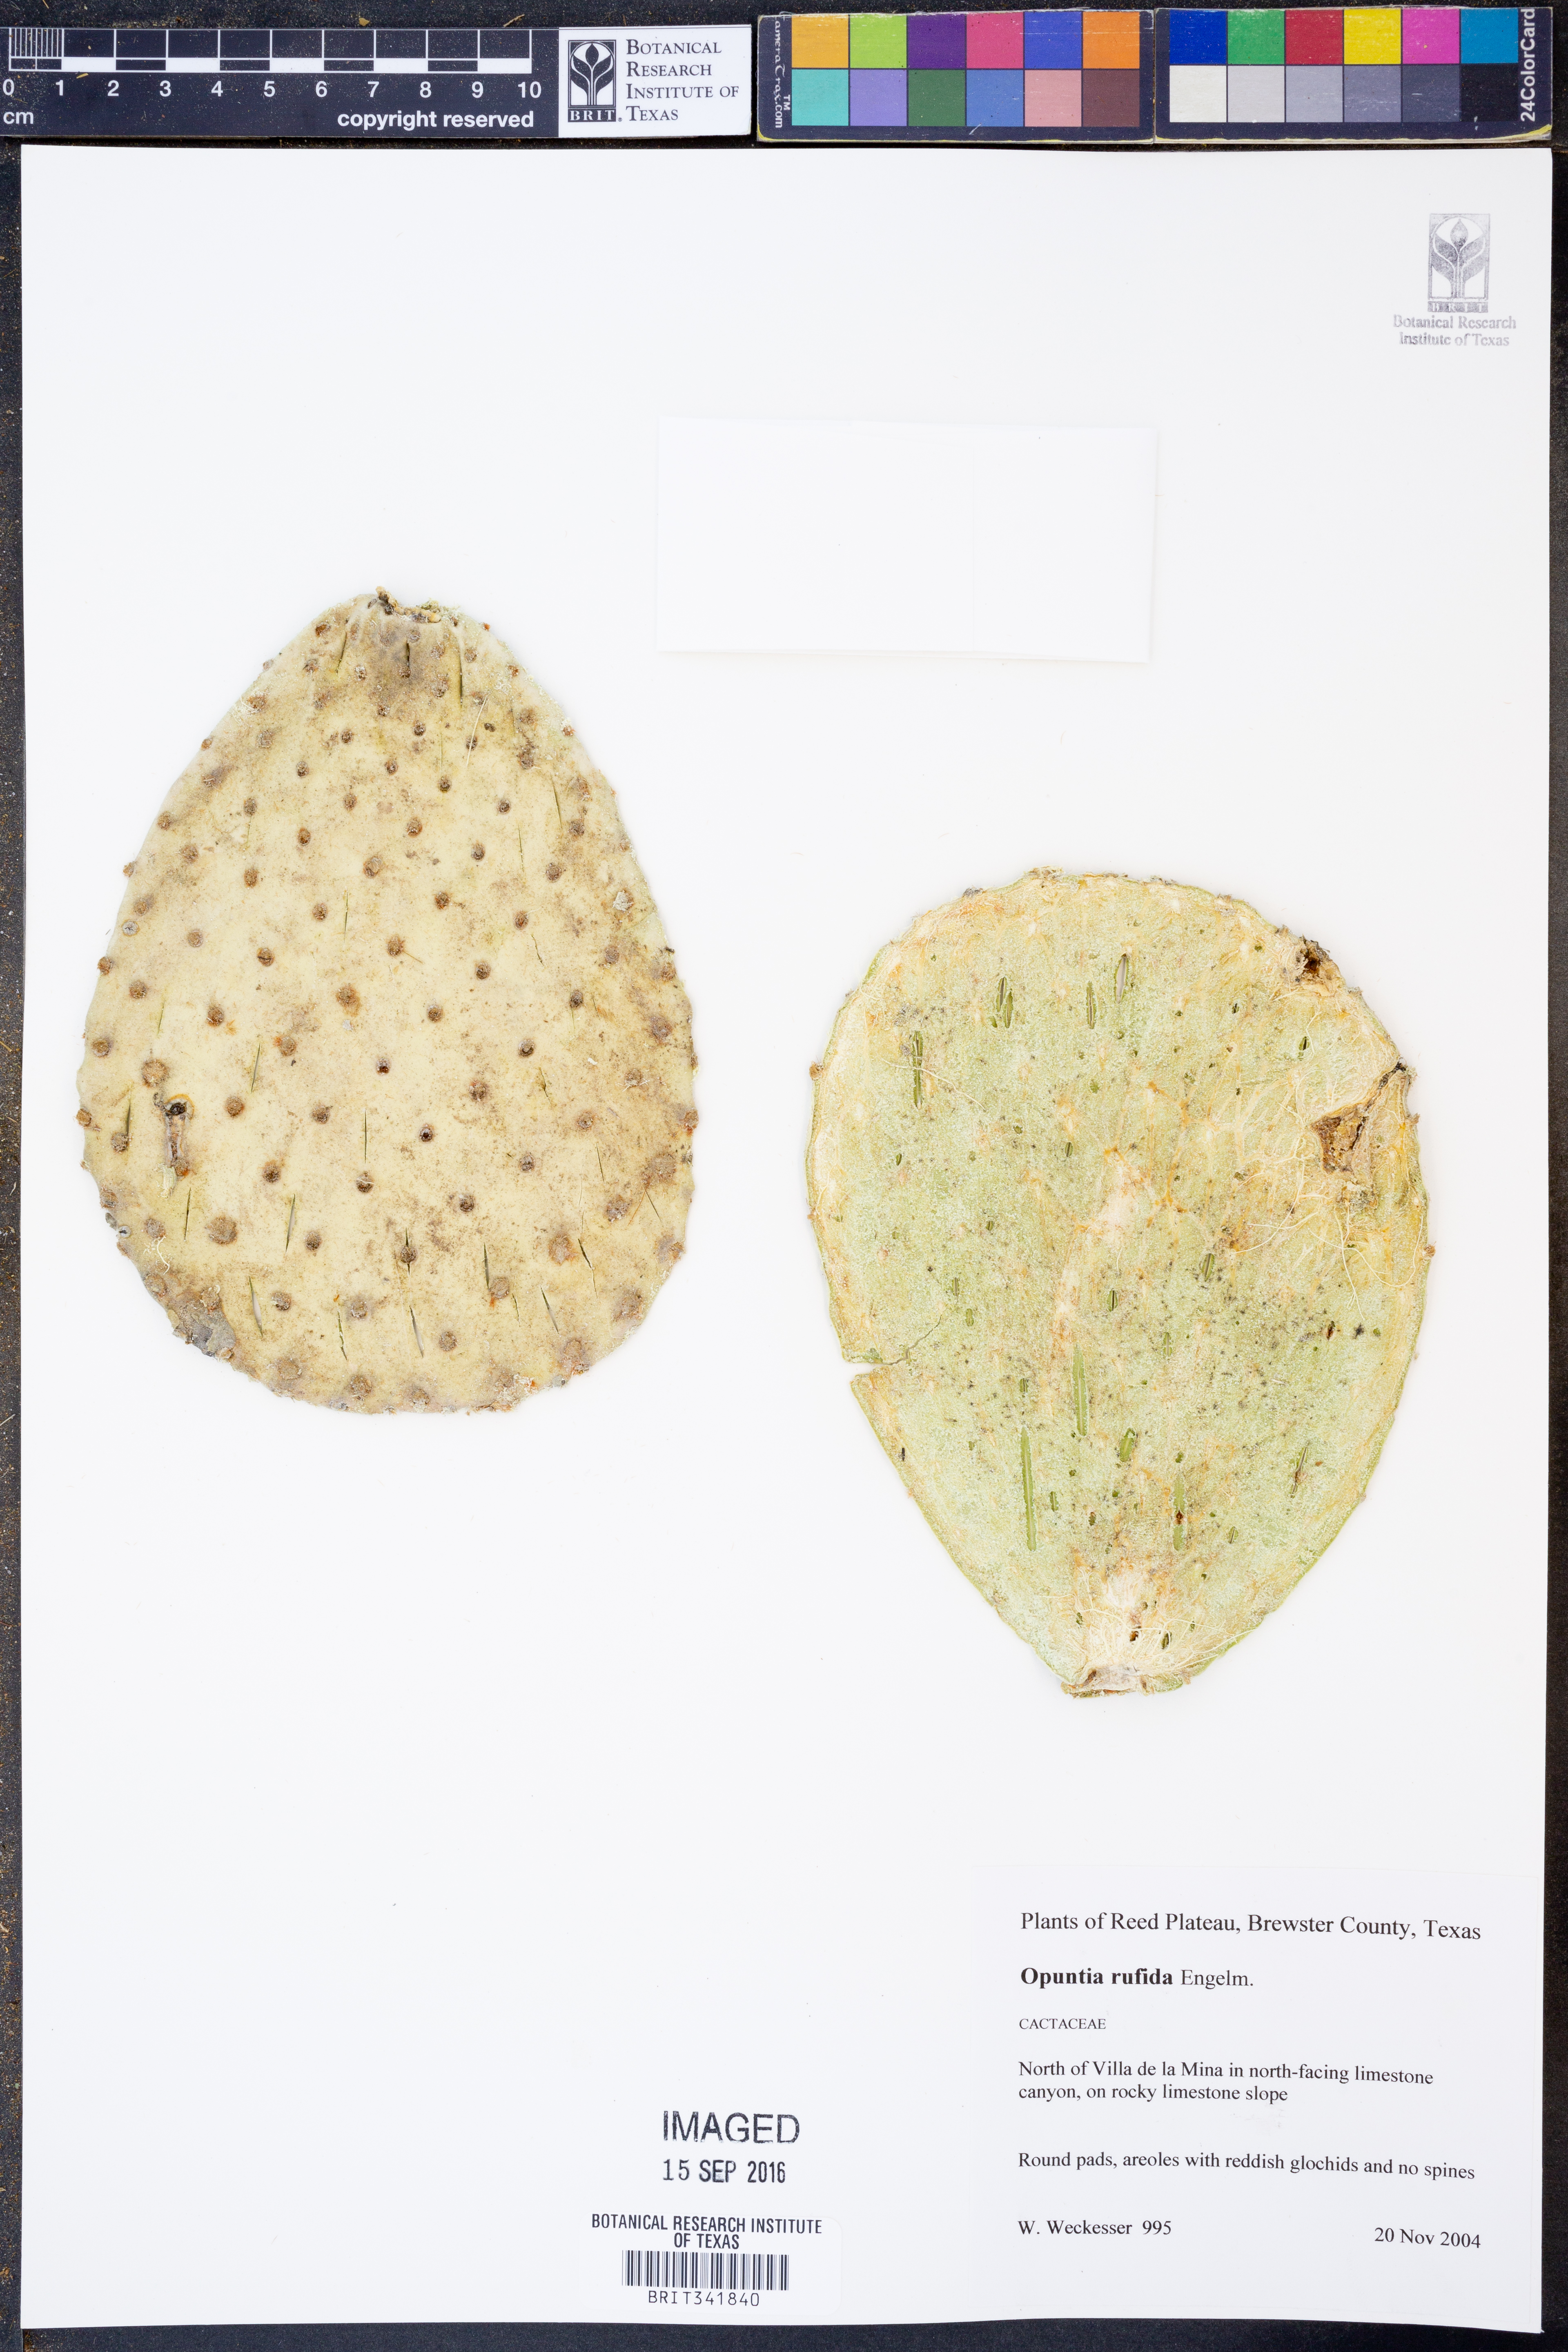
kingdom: Plantae
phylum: Tracheophyta
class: Magnoliopsida
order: Caryophyllales
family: Cactaceae
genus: Opuntia
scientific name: Opuntia rufida
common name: Blind pricklypear
